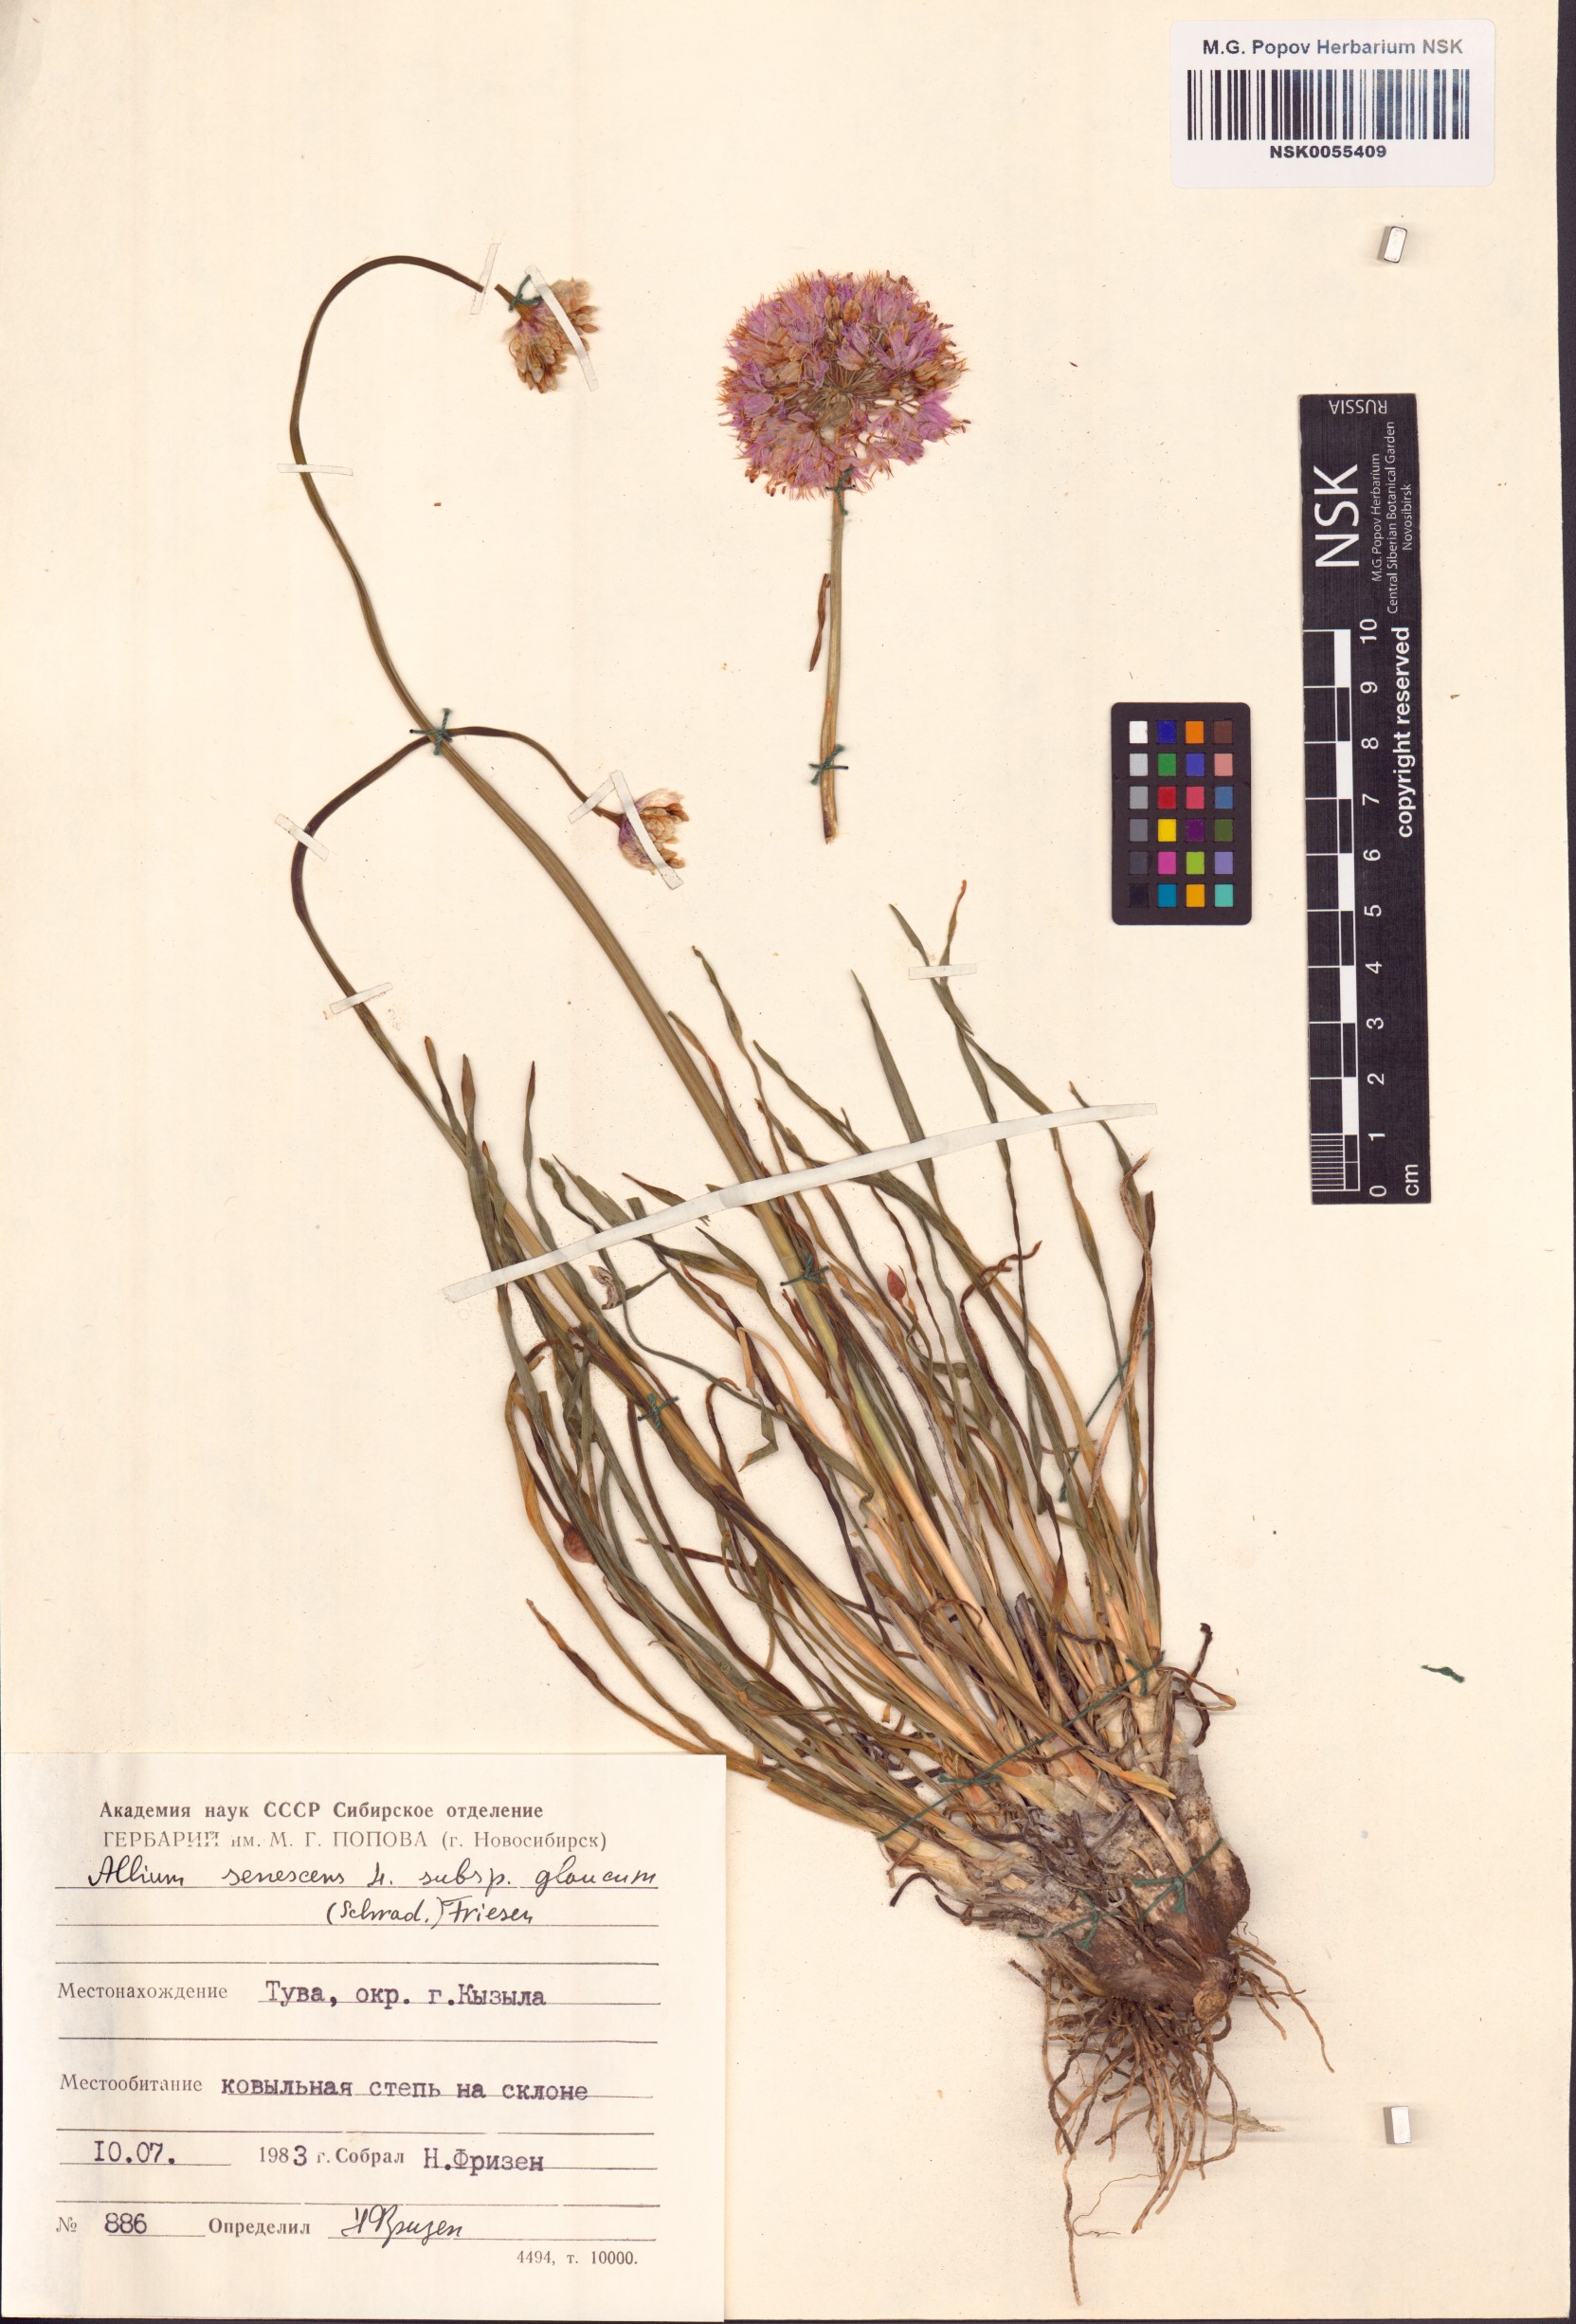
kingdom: Plantae
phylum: Tracheophyta
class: Liliopsida
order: Asparagales
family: Amaryllidaceae
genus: Allium
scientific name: Allium senescens
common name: German garlic
